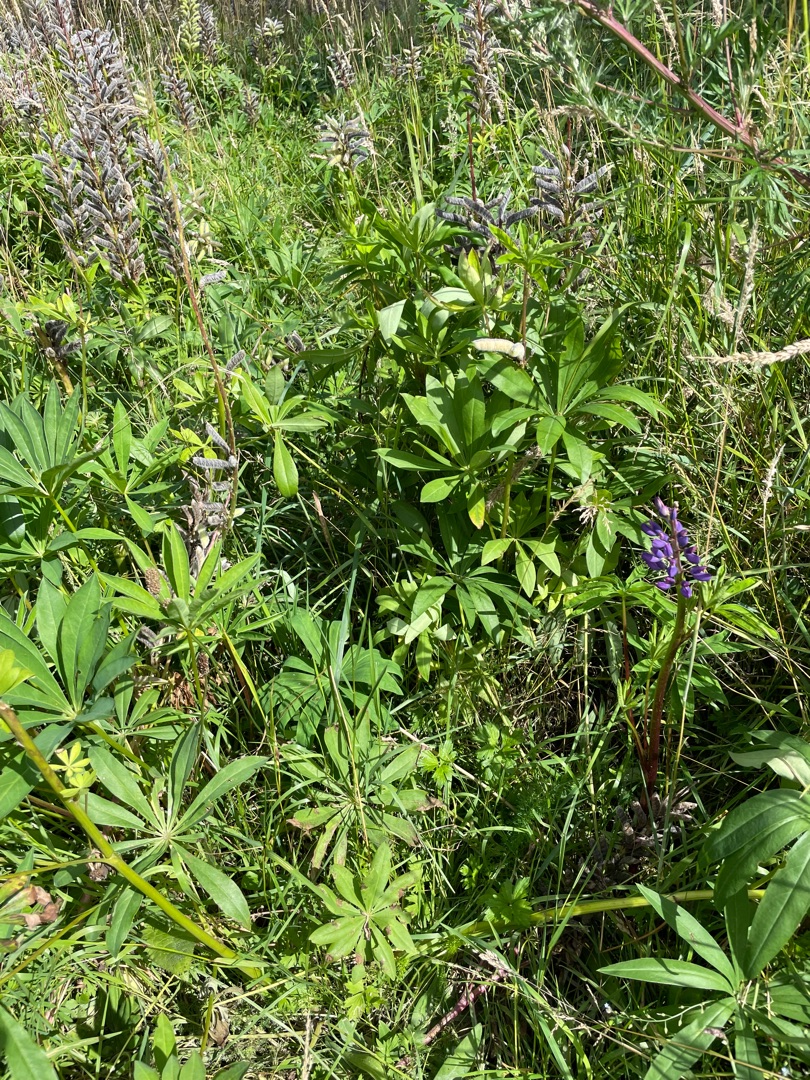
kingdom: Plantae
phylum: Tracheophyta
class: Magnoliopsida
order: Fabales
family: Fabaceae
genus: Lupinus
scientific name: Lupinus polyphyllus
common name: Mangebladet lupin
